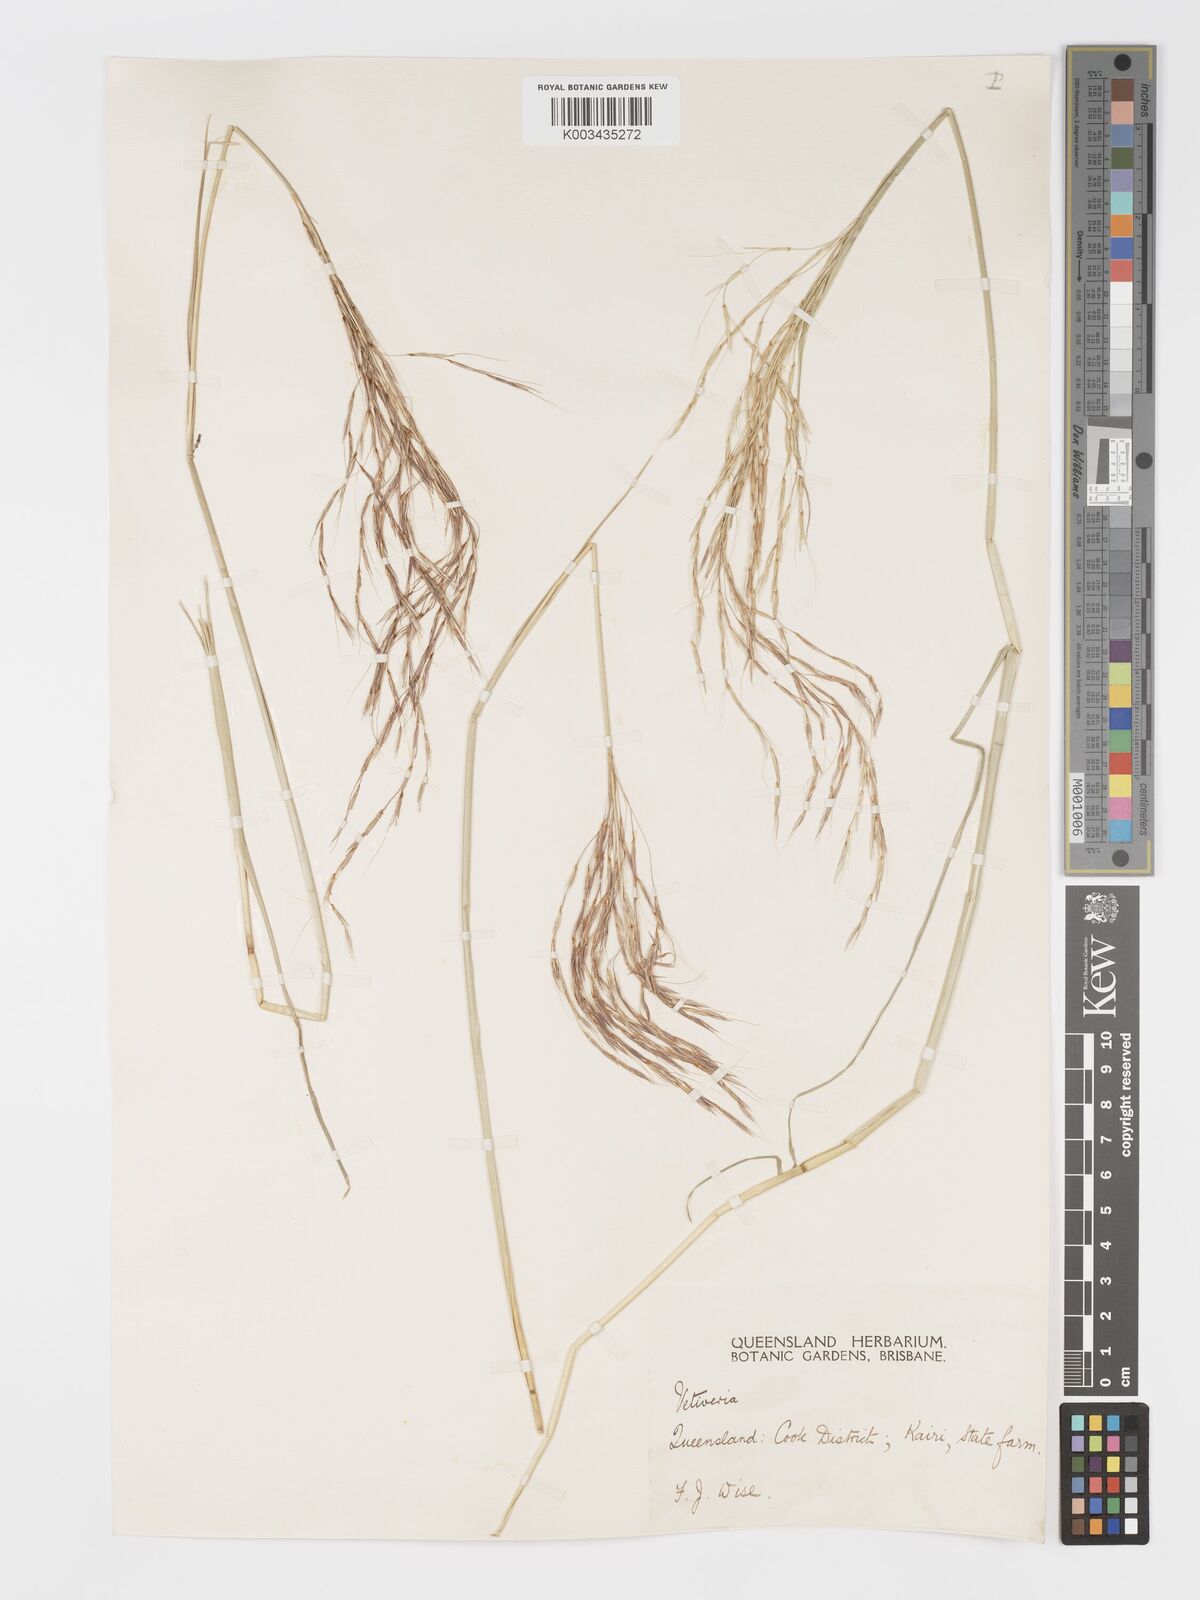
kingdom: Plantae
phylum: Tracheophyta
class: Liliopsida
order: Poales
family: Poaceae
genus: Chrysopogon
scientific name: Chrysopogon filipes
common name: Australian vetiver
